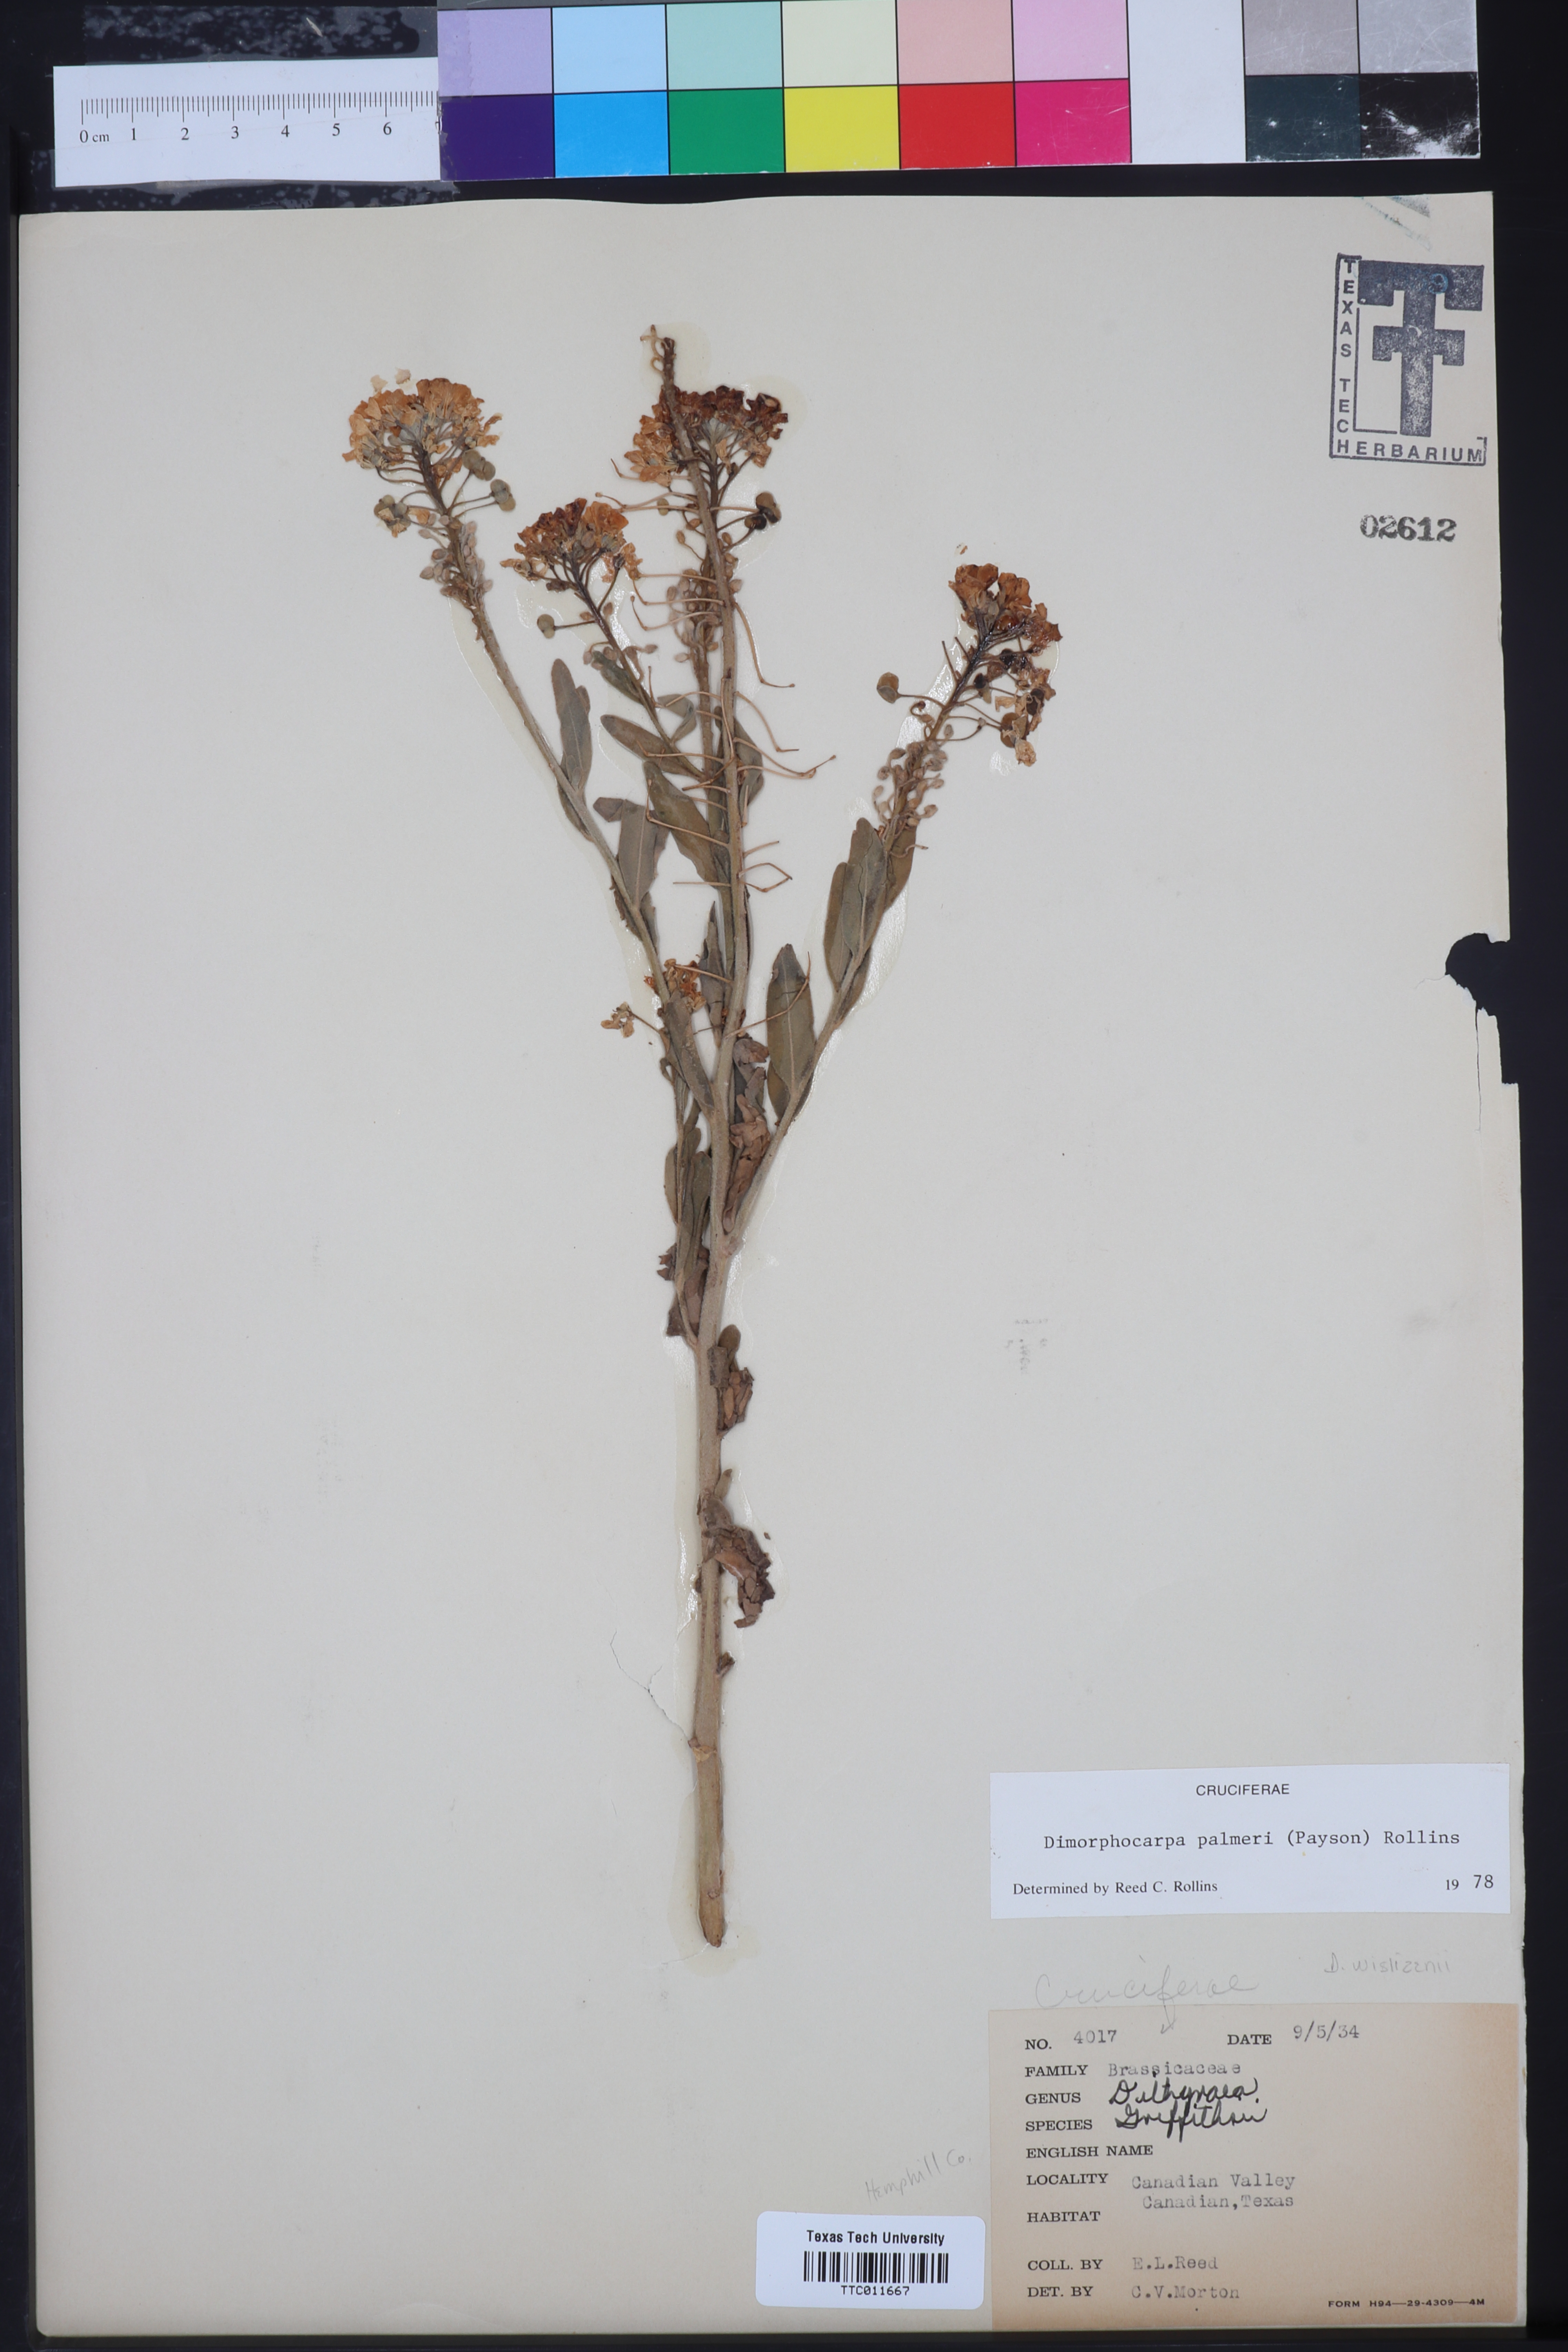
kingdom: Plantae
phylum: Tracheophyta
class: Magnoliopsida
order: Brassicales
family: Brassicaceae
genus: Dimorphocarpa
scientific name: Dimorphocarpa candicans
